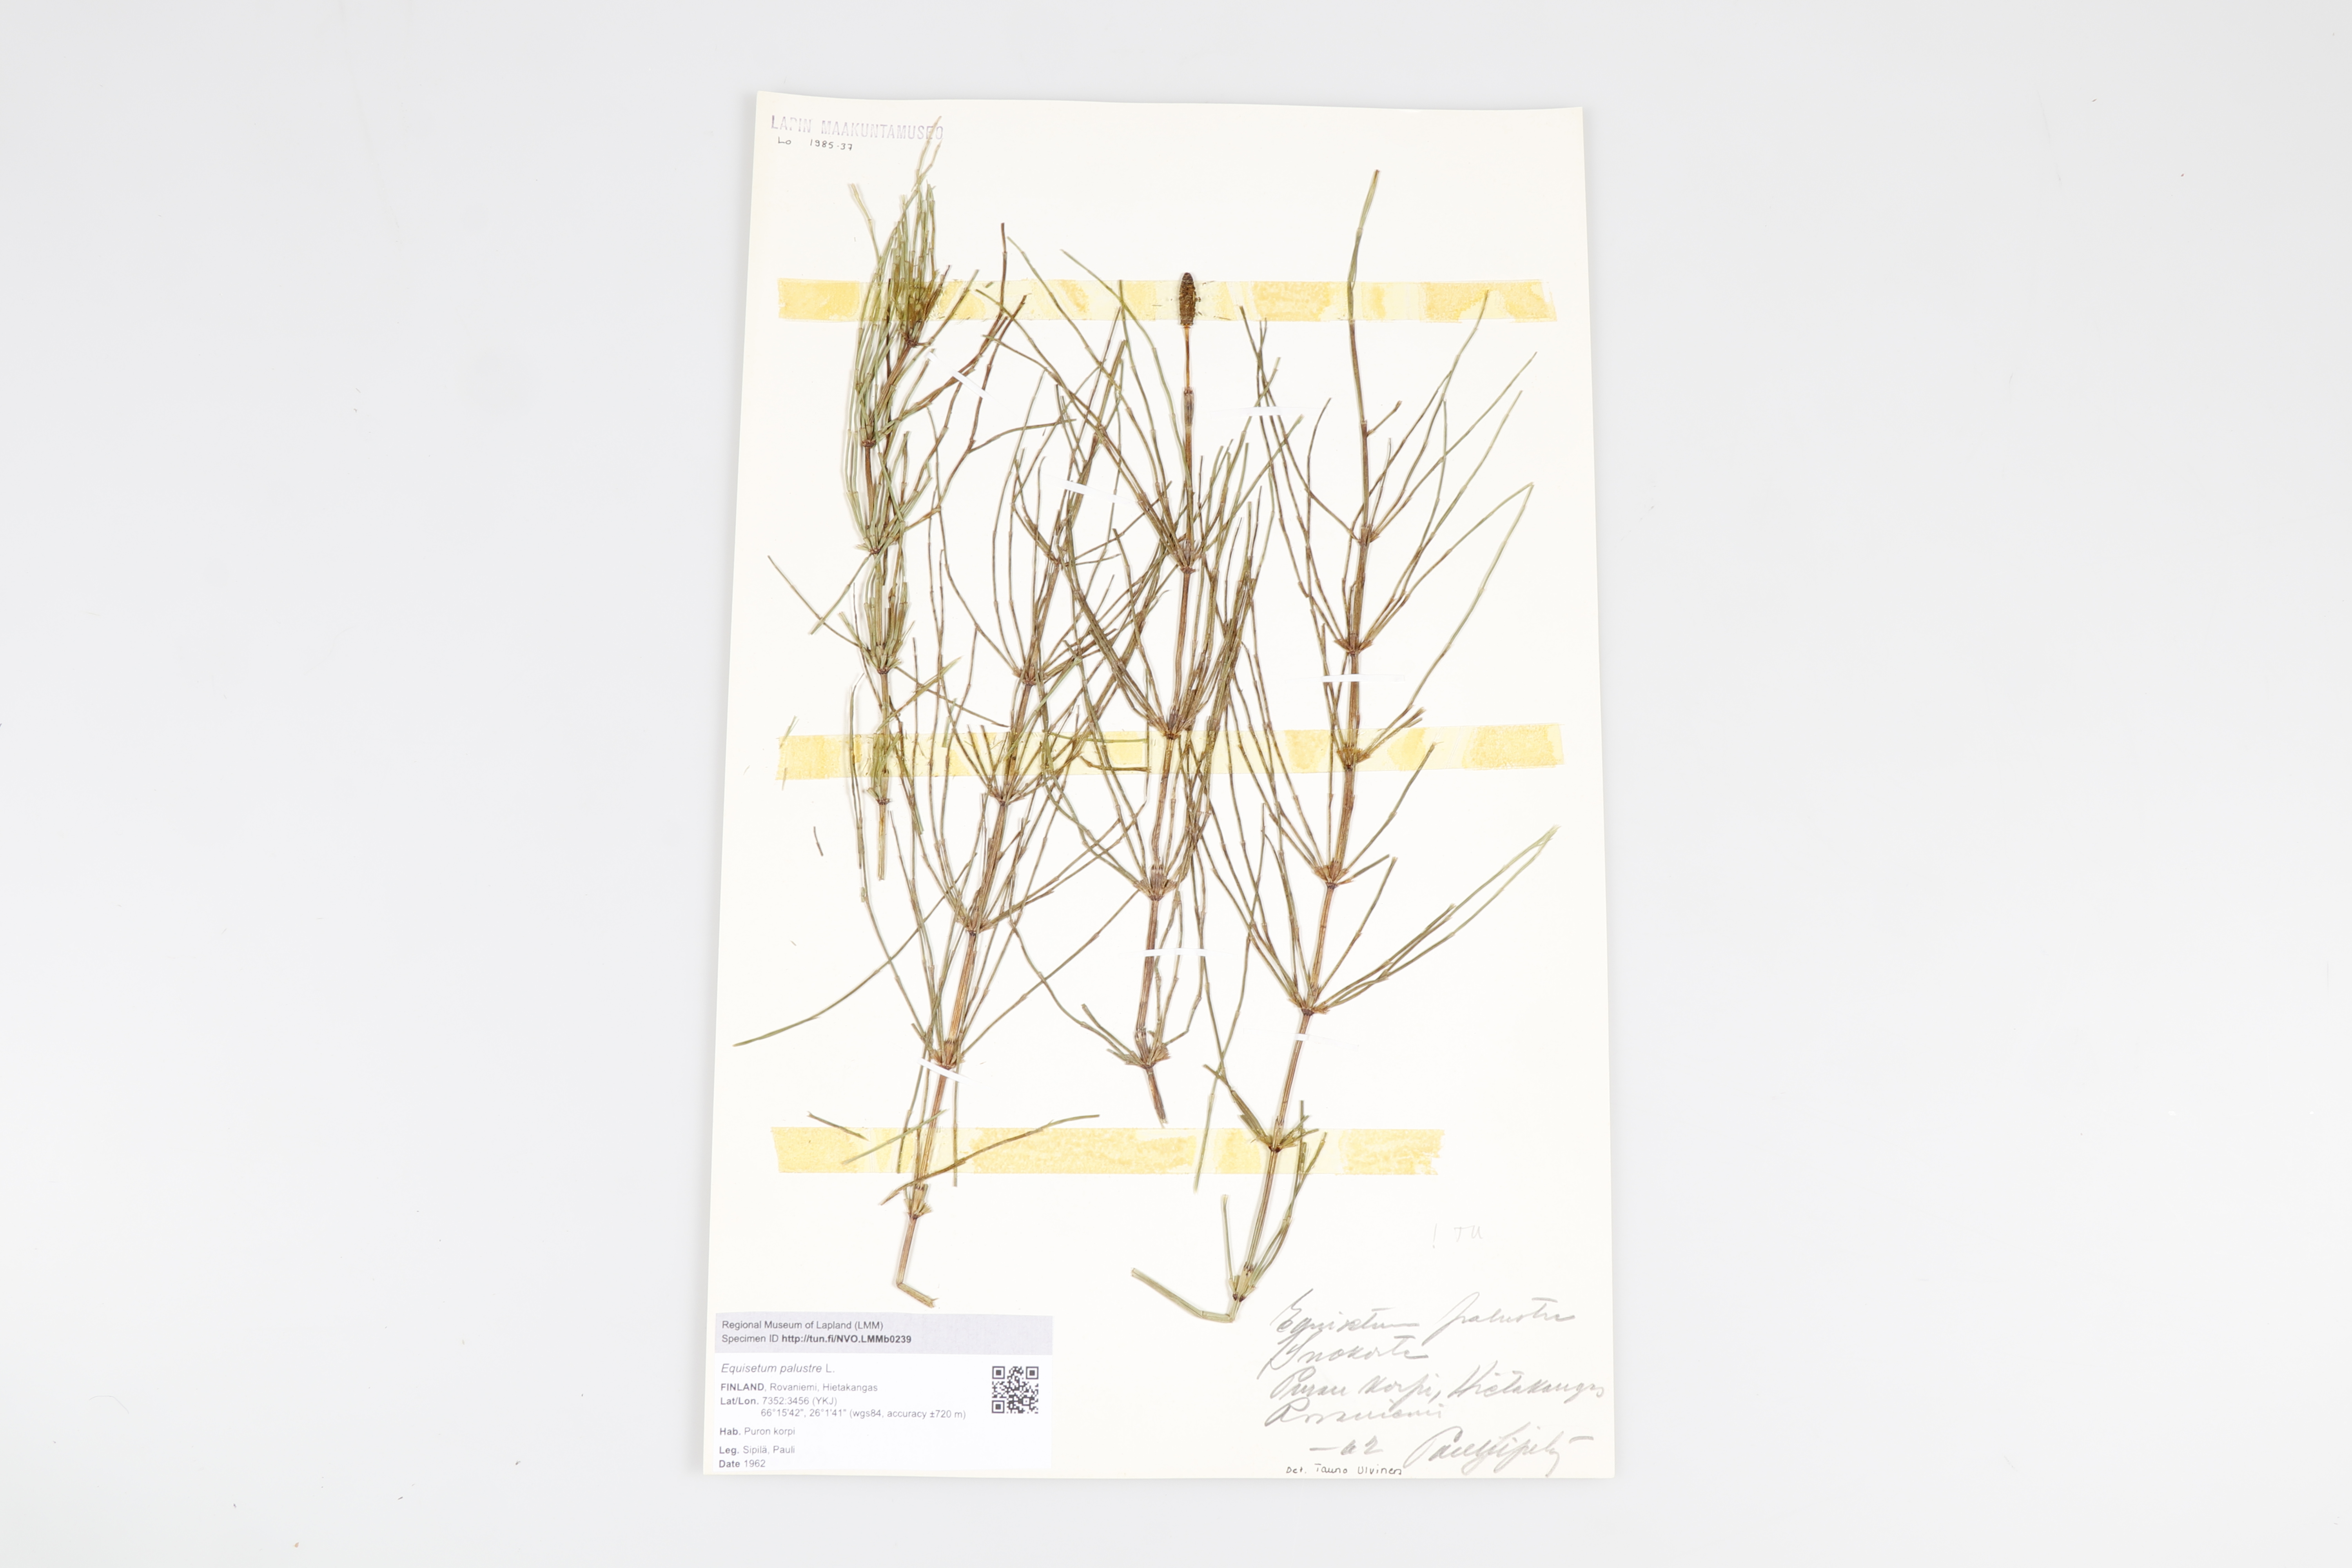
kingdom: Plantae
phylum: Tracheophyta
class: Polypodiopsida
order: Equisetales
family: Equisetaceae
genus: Equisetum
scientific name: Equisetum palustre
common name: Marsh horsetail
